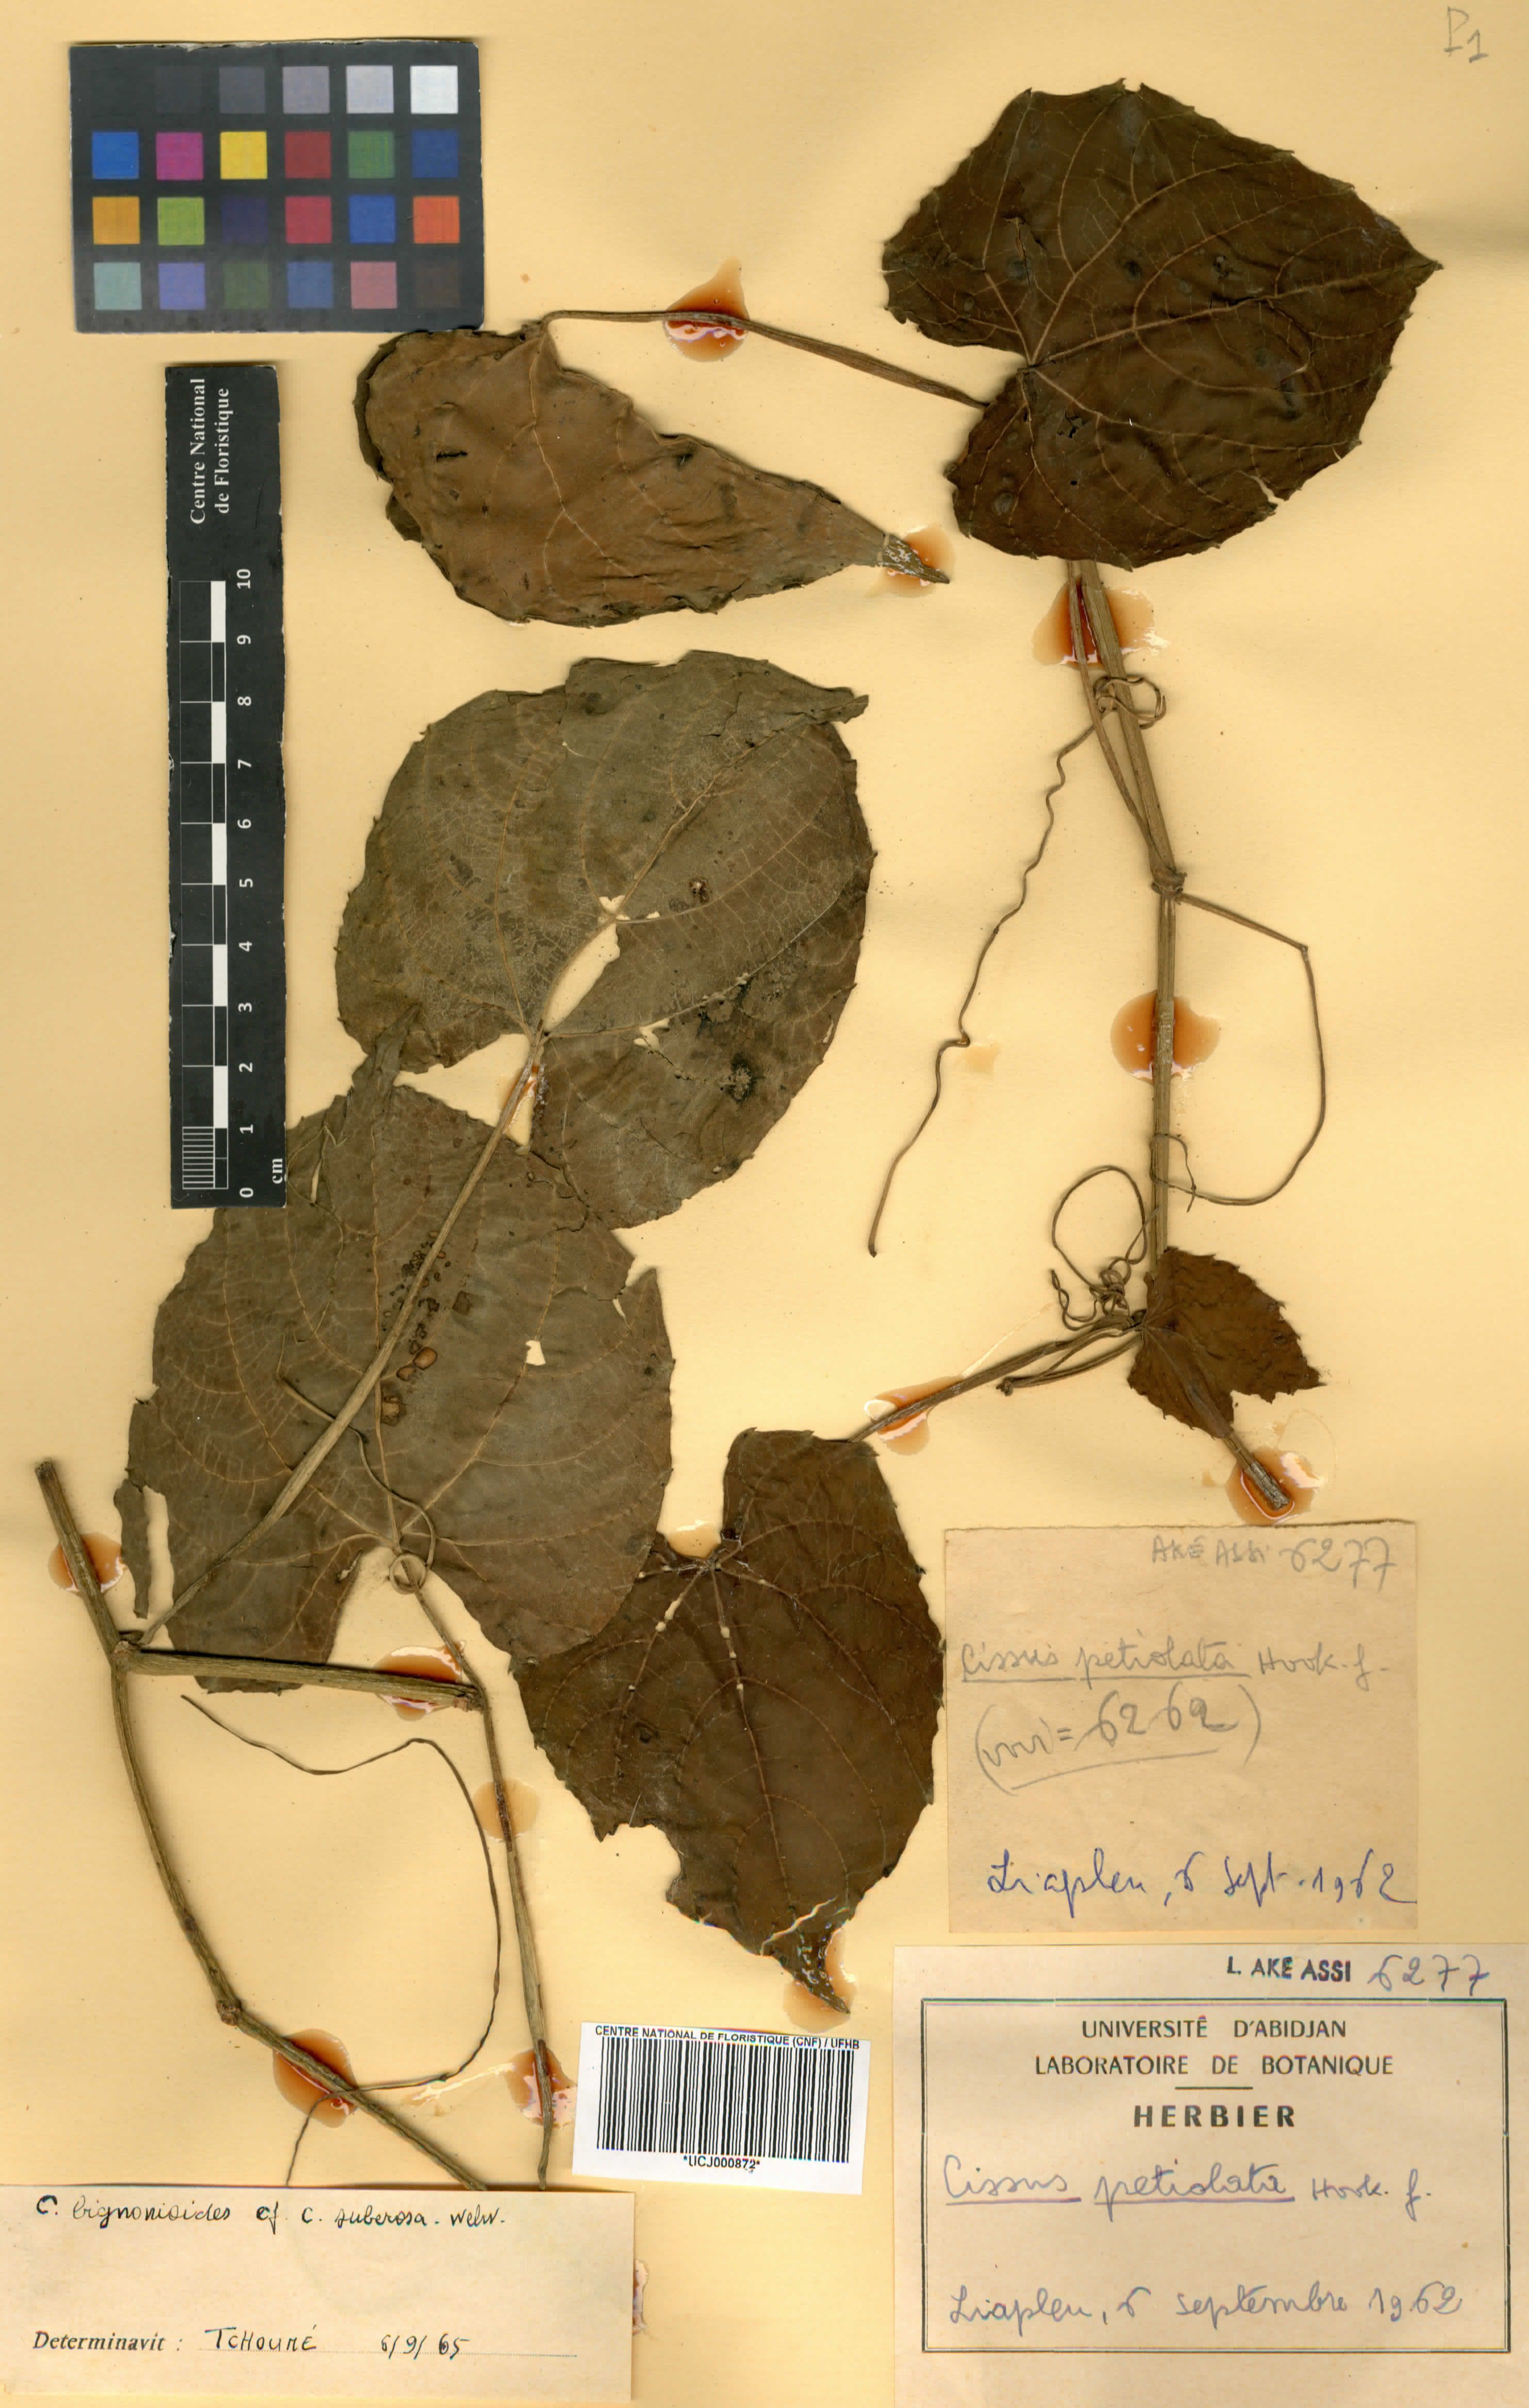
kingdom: Plantae
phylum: Tracheophyta
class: Magnoliopsida
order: Vitales
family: Vitaceae
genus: Cissus
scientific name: Cissus petiolata
